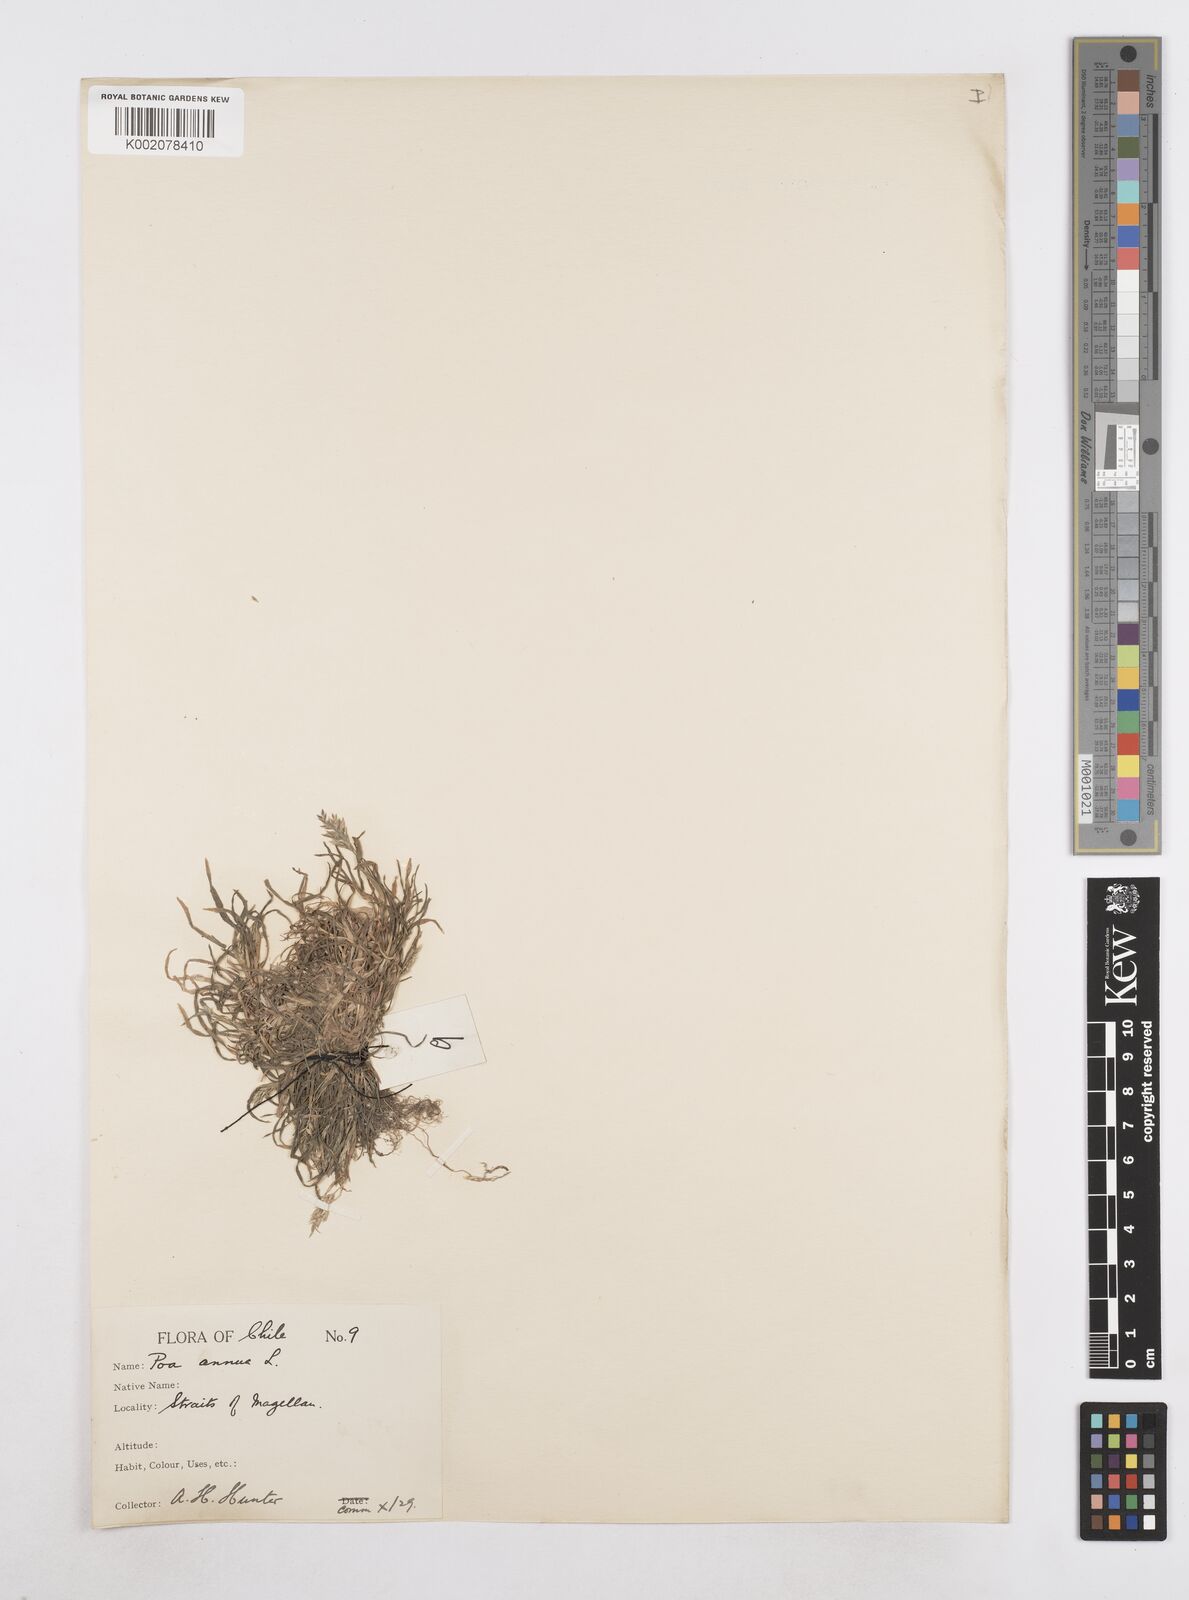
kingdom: Plantae
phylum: Tracheophyta
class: Liliopsida
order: Poales
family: Poaceae
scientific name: Poaceae
